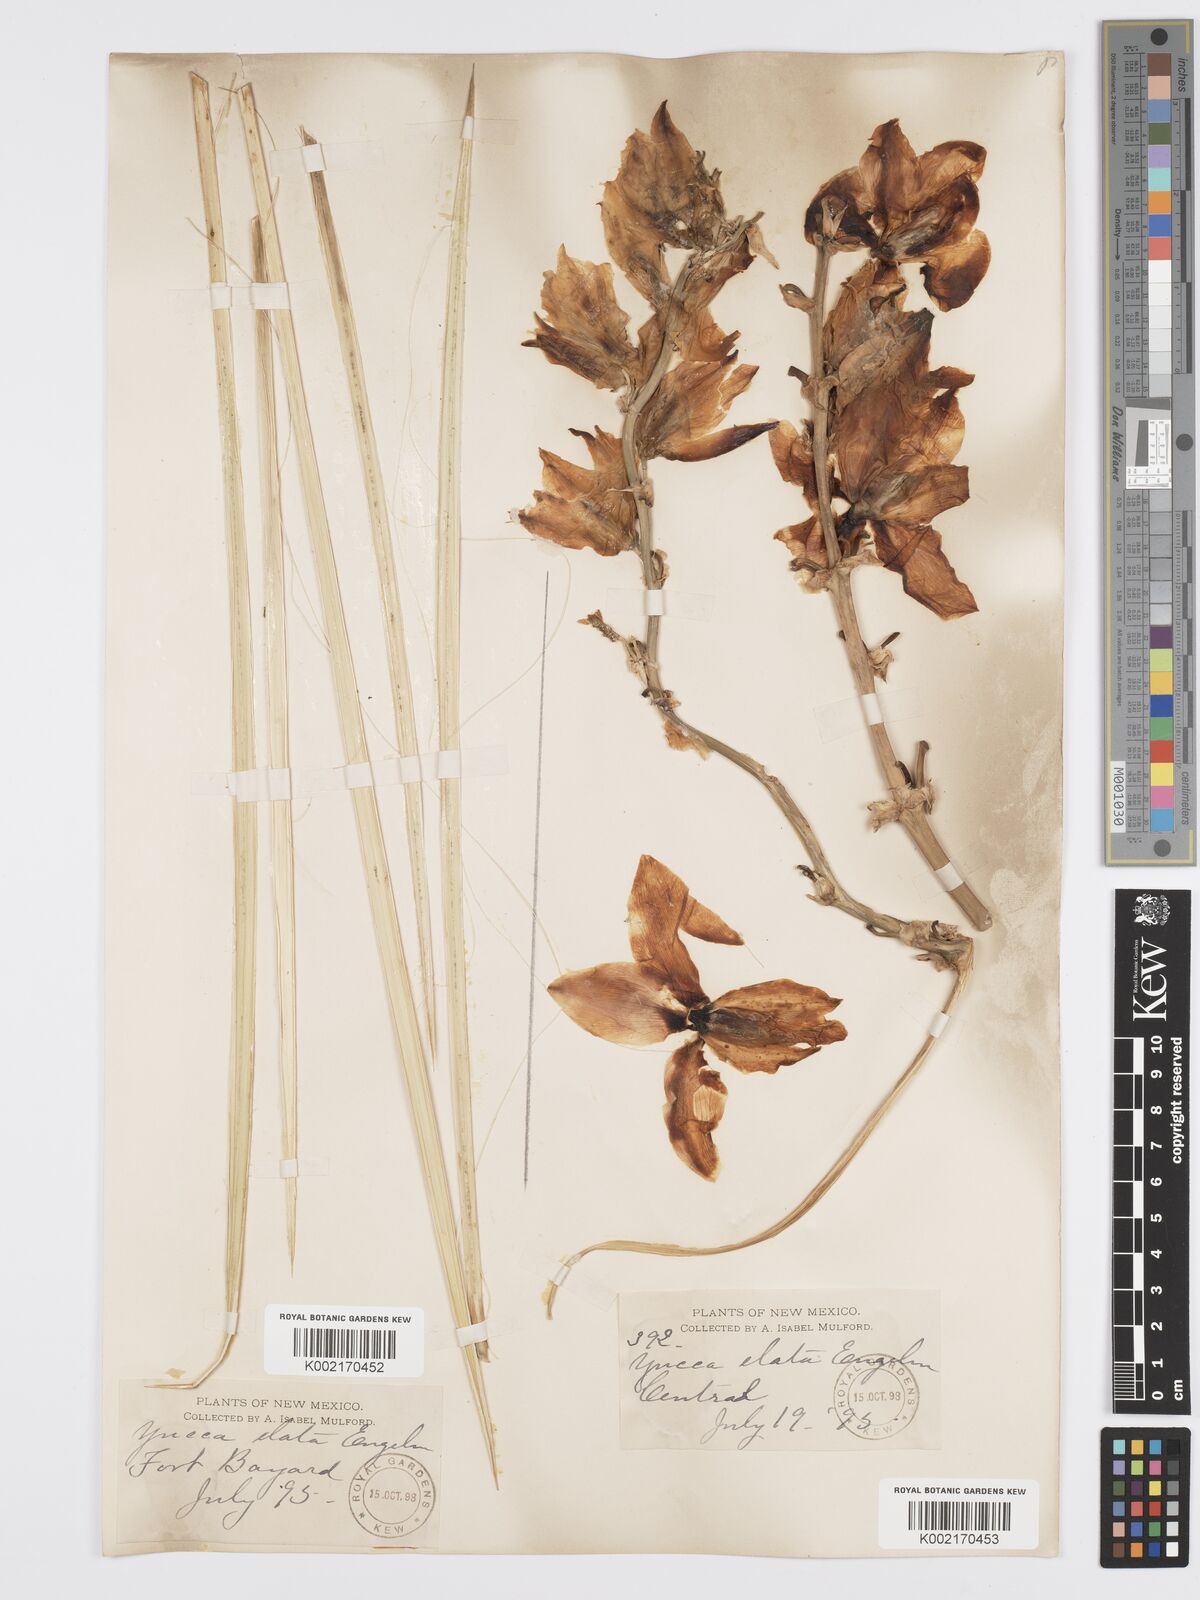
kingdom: Plantae
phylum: Tracheophyta
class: Liliopsida
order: Asparagales
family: Asparagaceae
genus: Yucca
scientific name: Yucca elata
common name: Palmella
